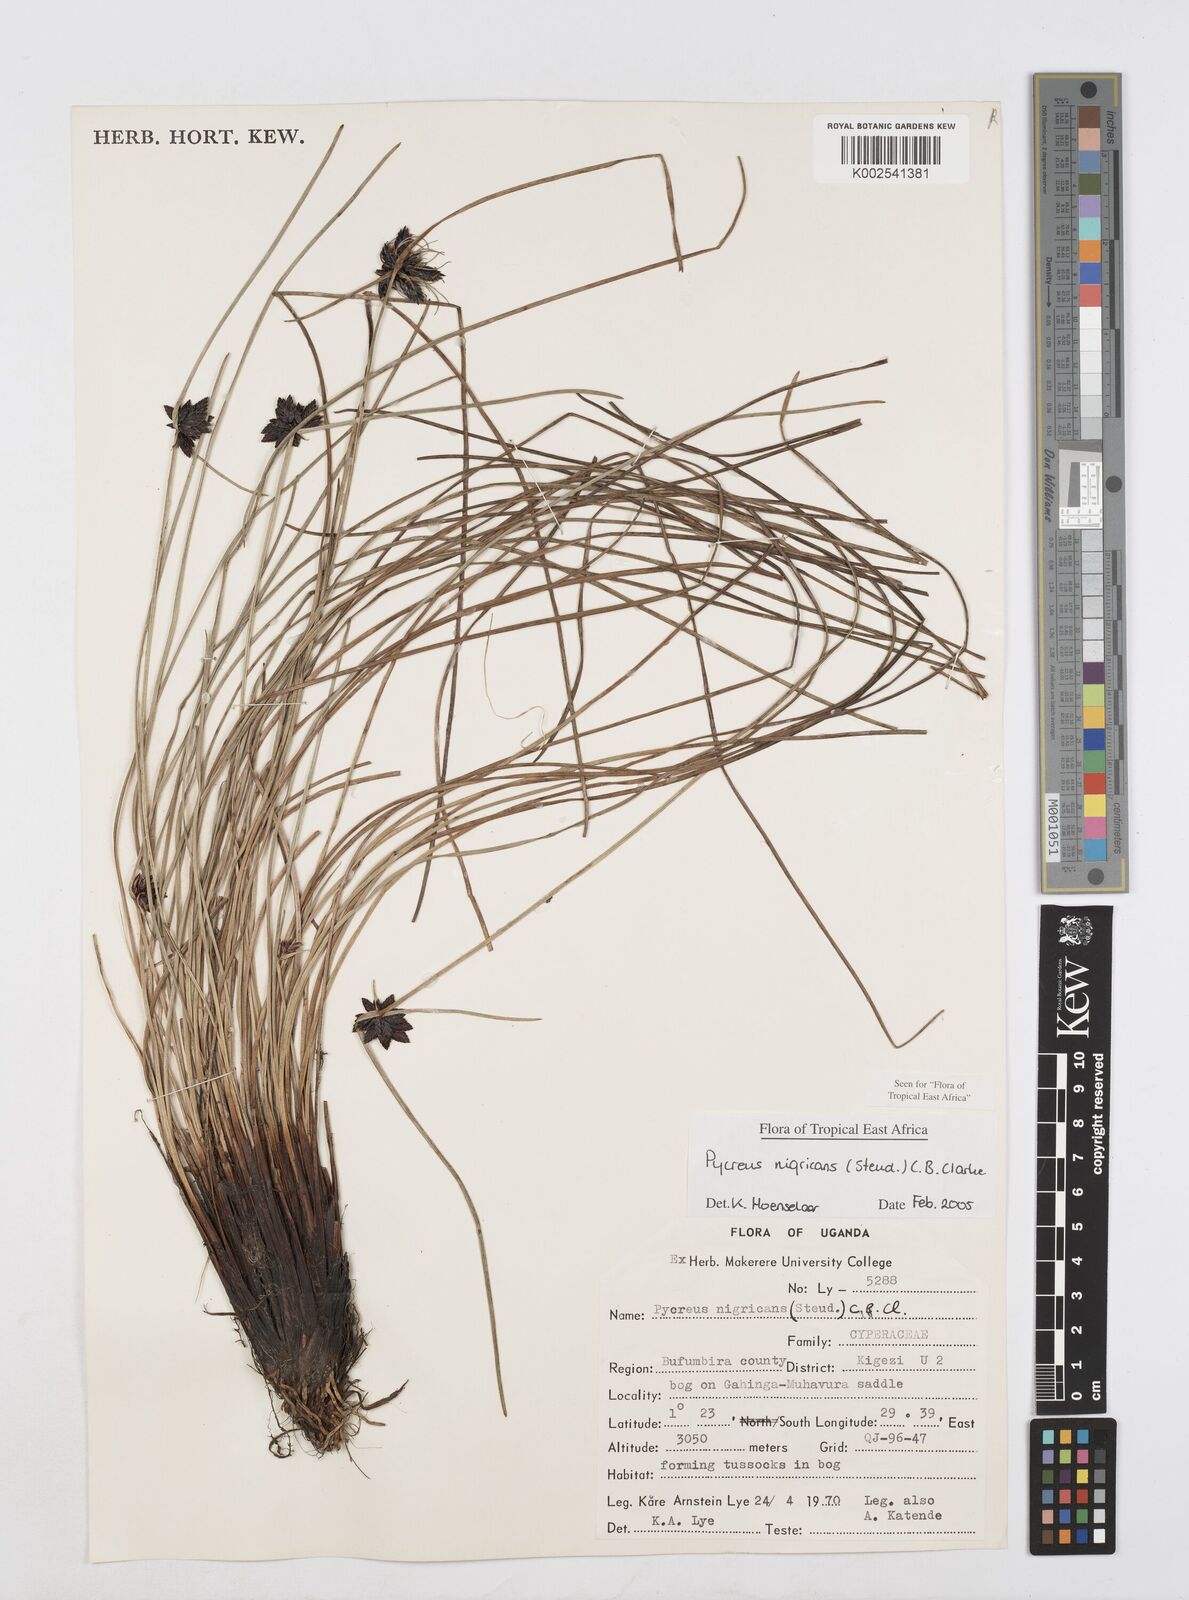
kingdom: Plantae
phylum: Tracheophyta
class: Liliopsida
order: Poales
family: Cyperaceae
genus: Cyperus
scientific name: Cyperus nigricans
